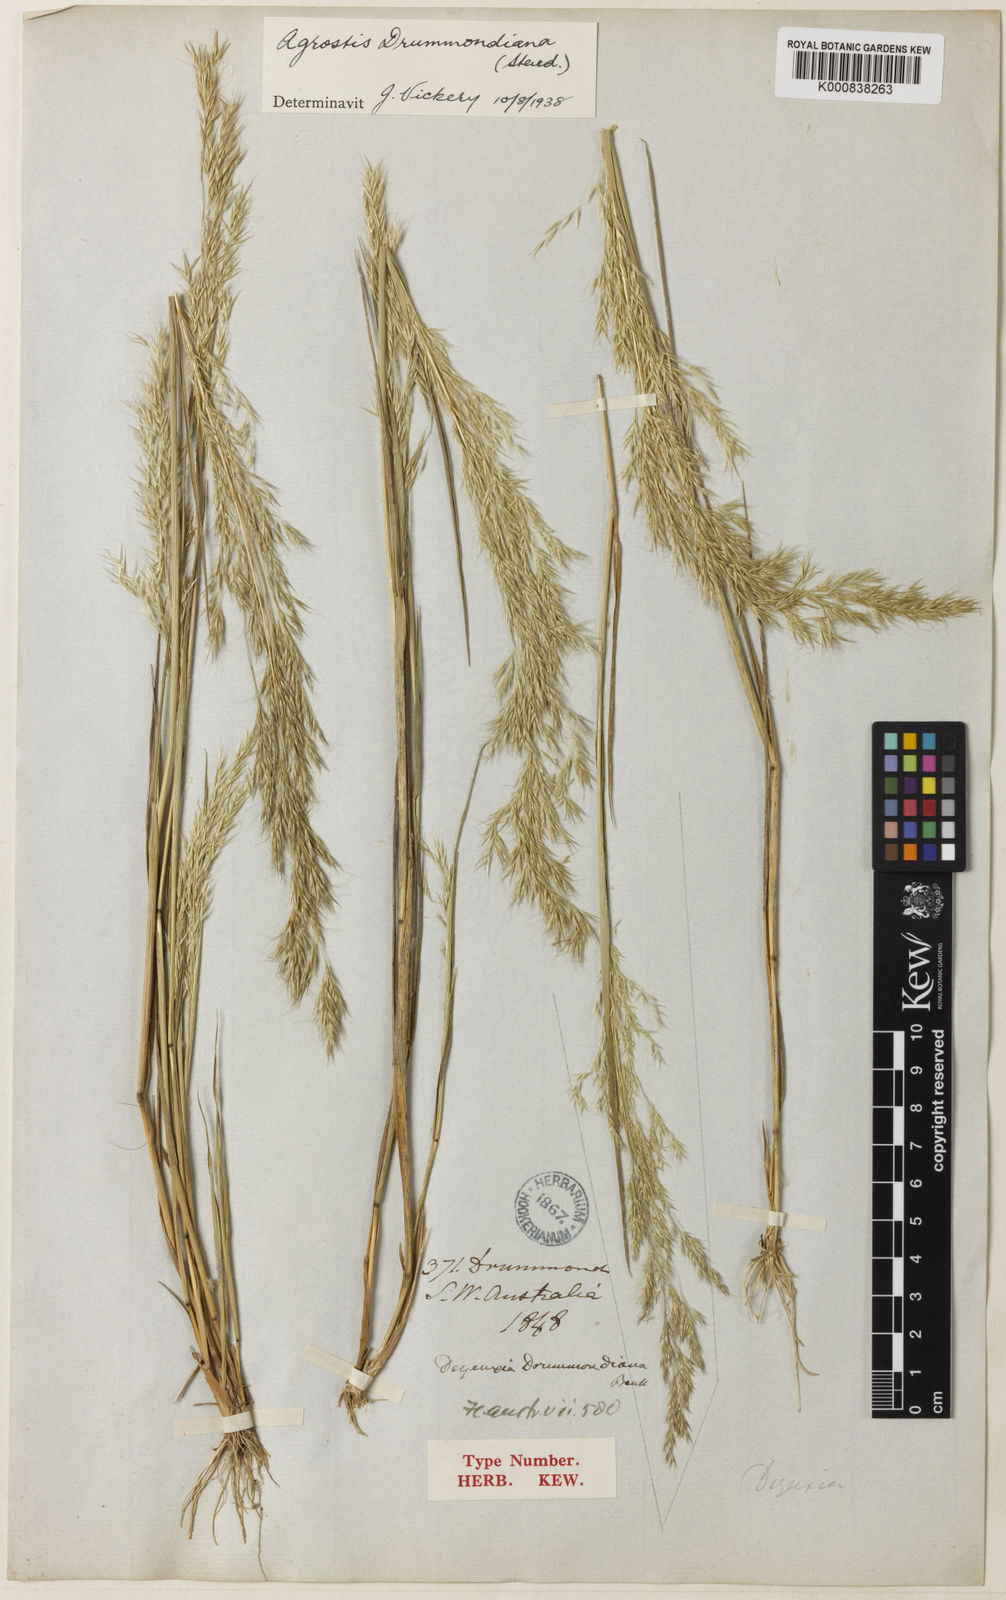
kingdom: Plantae
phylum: Tracheophyta
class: Liliopsida
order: Poales
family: Poaceae
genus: Agrostis
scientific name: Agrostis
